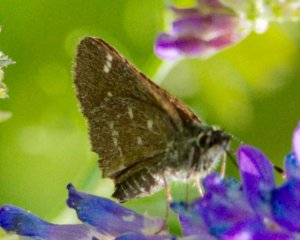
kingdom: Animalia
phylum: Arthropoda
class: Insecta
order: Lepidoptera
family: Hesperiidae
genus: Mastor
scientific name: Mastor hegon
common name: Pepper and Salt Skipper
